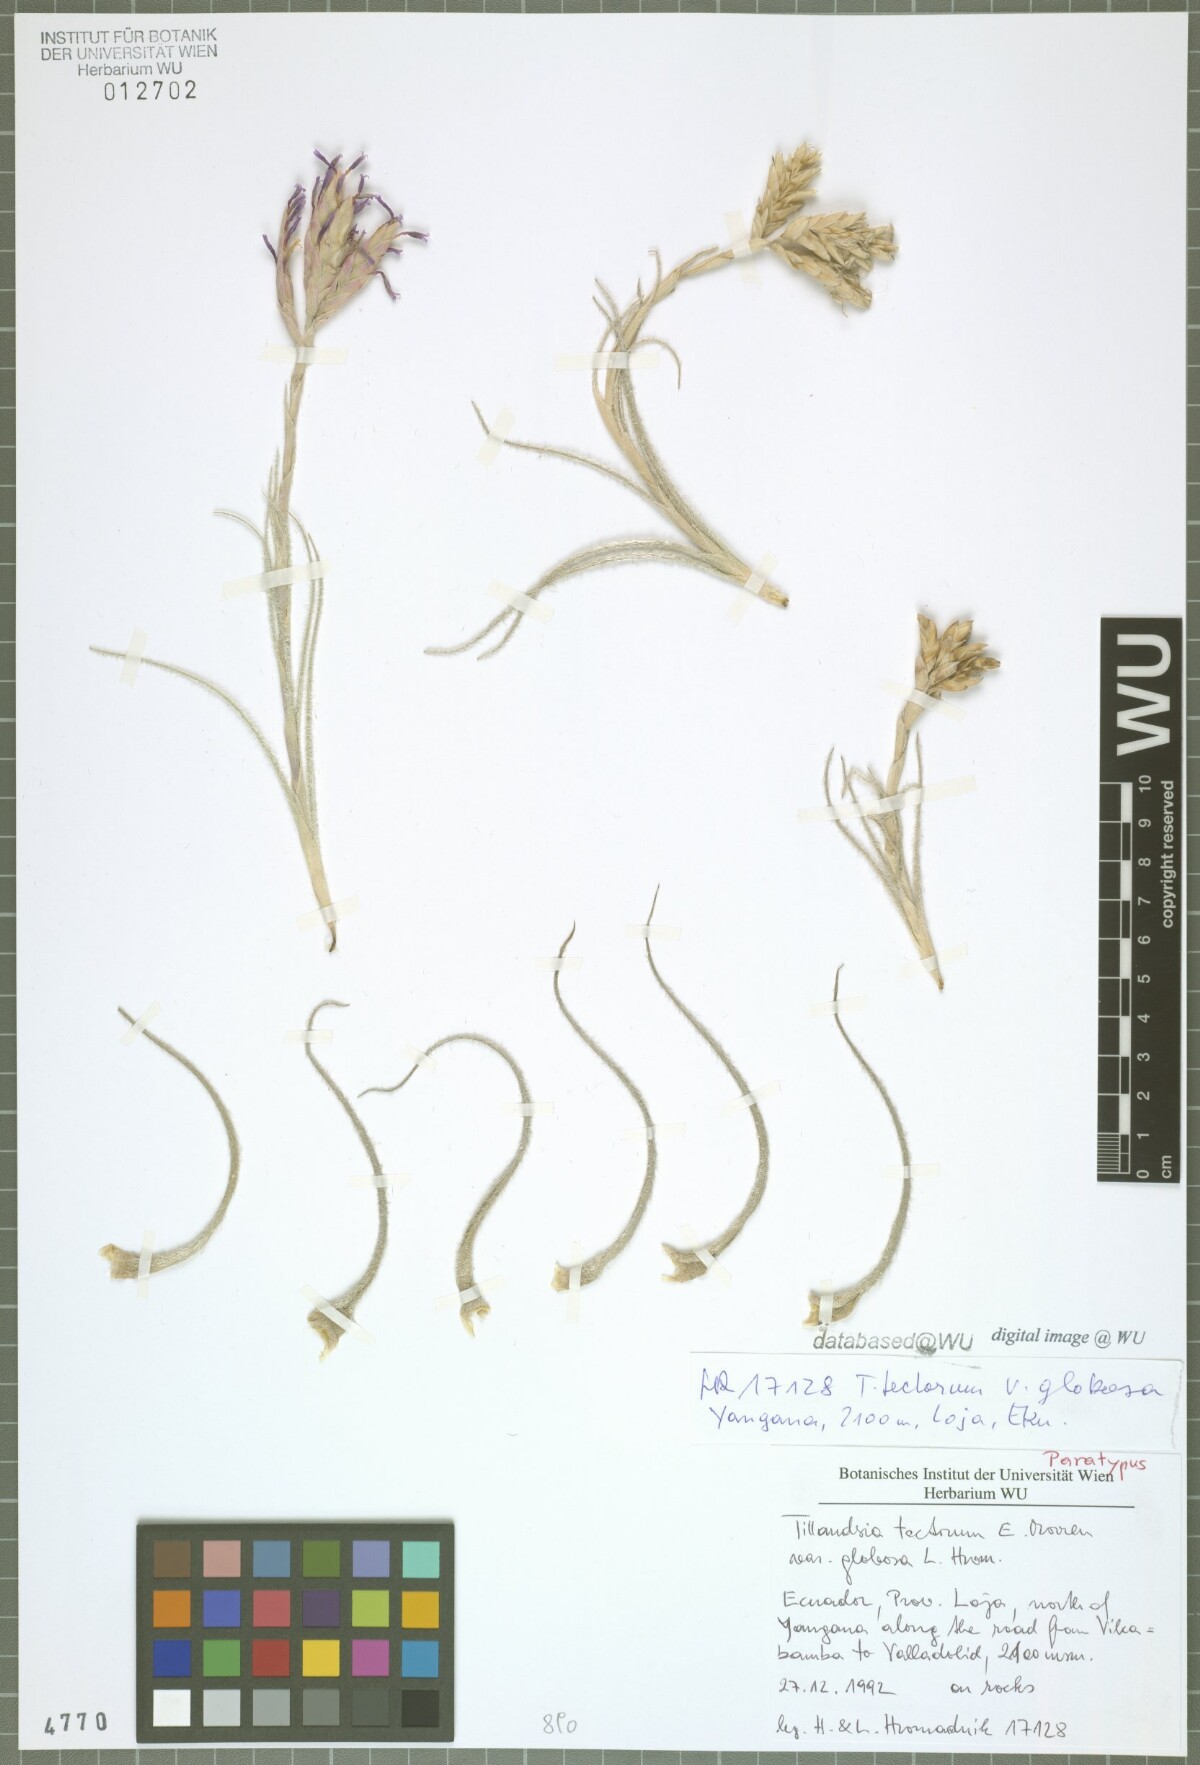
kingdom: Plantae
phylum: Tracheophyta
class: Liliopsida
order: Poales
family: Bromeliaceae
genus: Tillandsia
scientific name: Tillandsia tectorum
